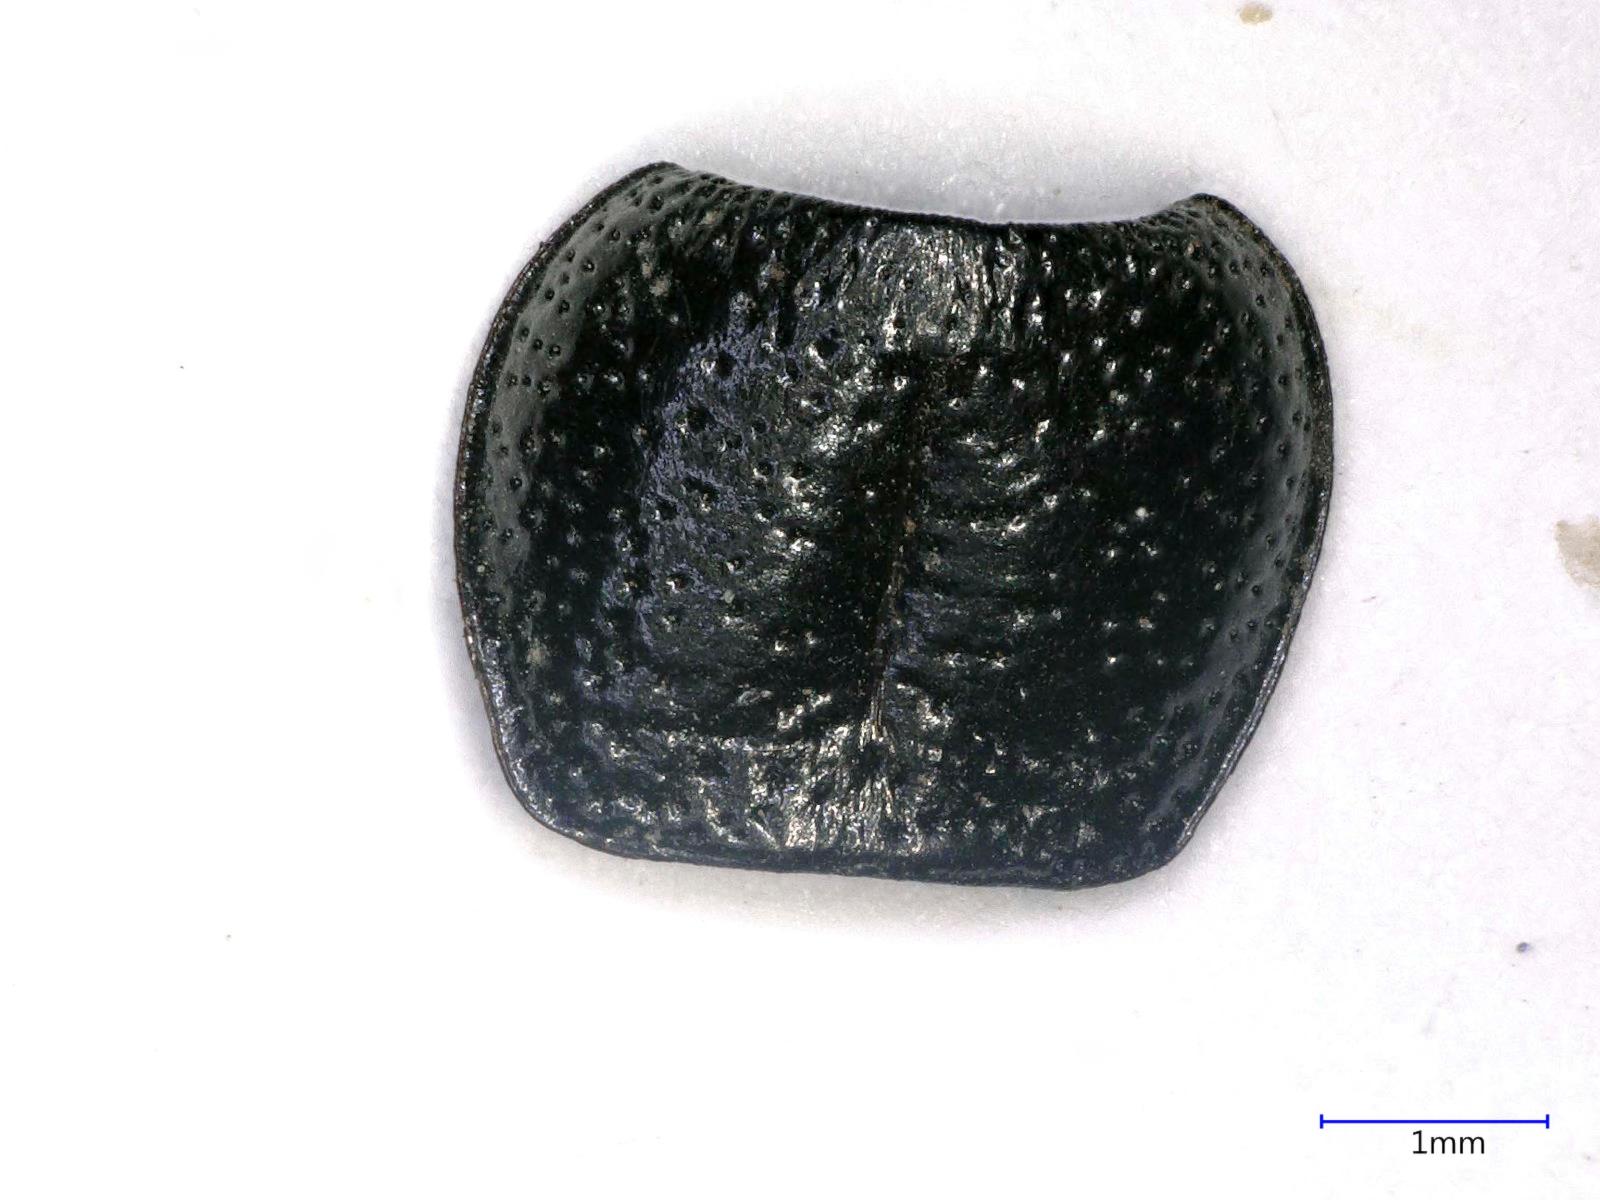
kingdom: Animalia
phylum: Arthropoda
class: Insecta
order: Coleoptera
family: Carabidae
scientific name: Carabidae
